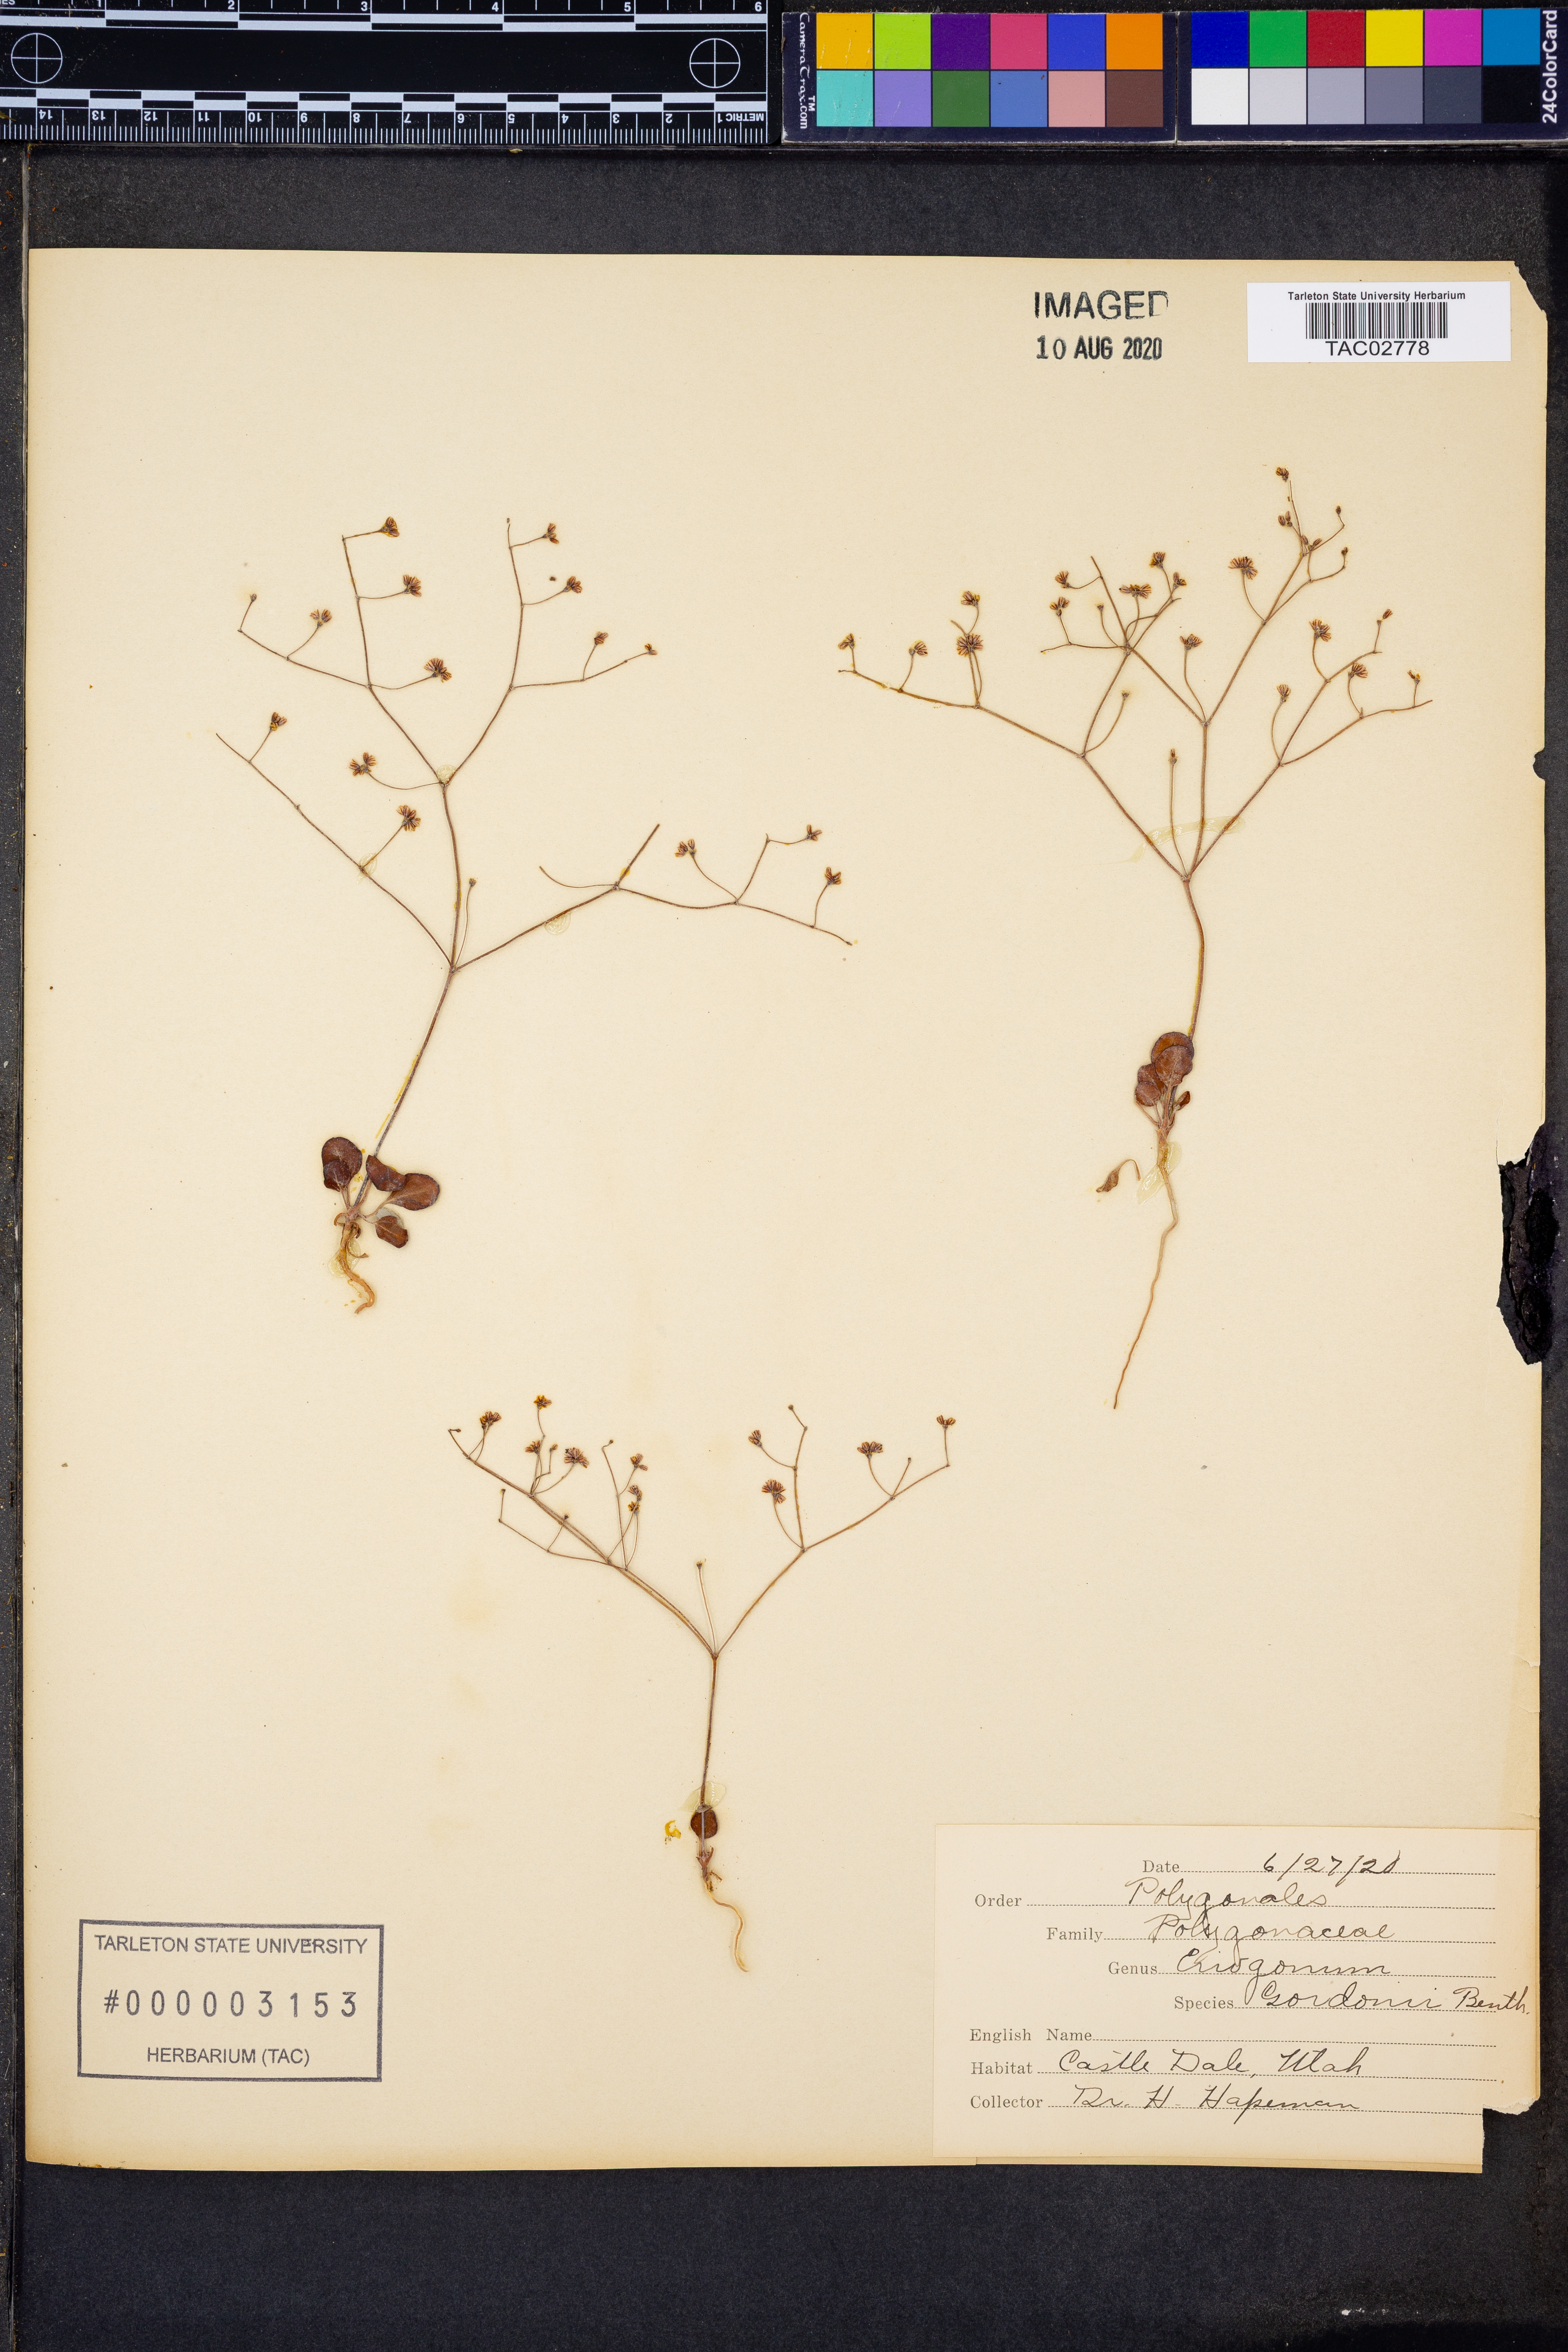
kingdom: Plantae
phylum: Tracheophyta
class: Magnoliopsida
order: Caryophyllales
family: Polygonaceae
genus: Eriogonum
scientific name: Eriogonum gordonii
